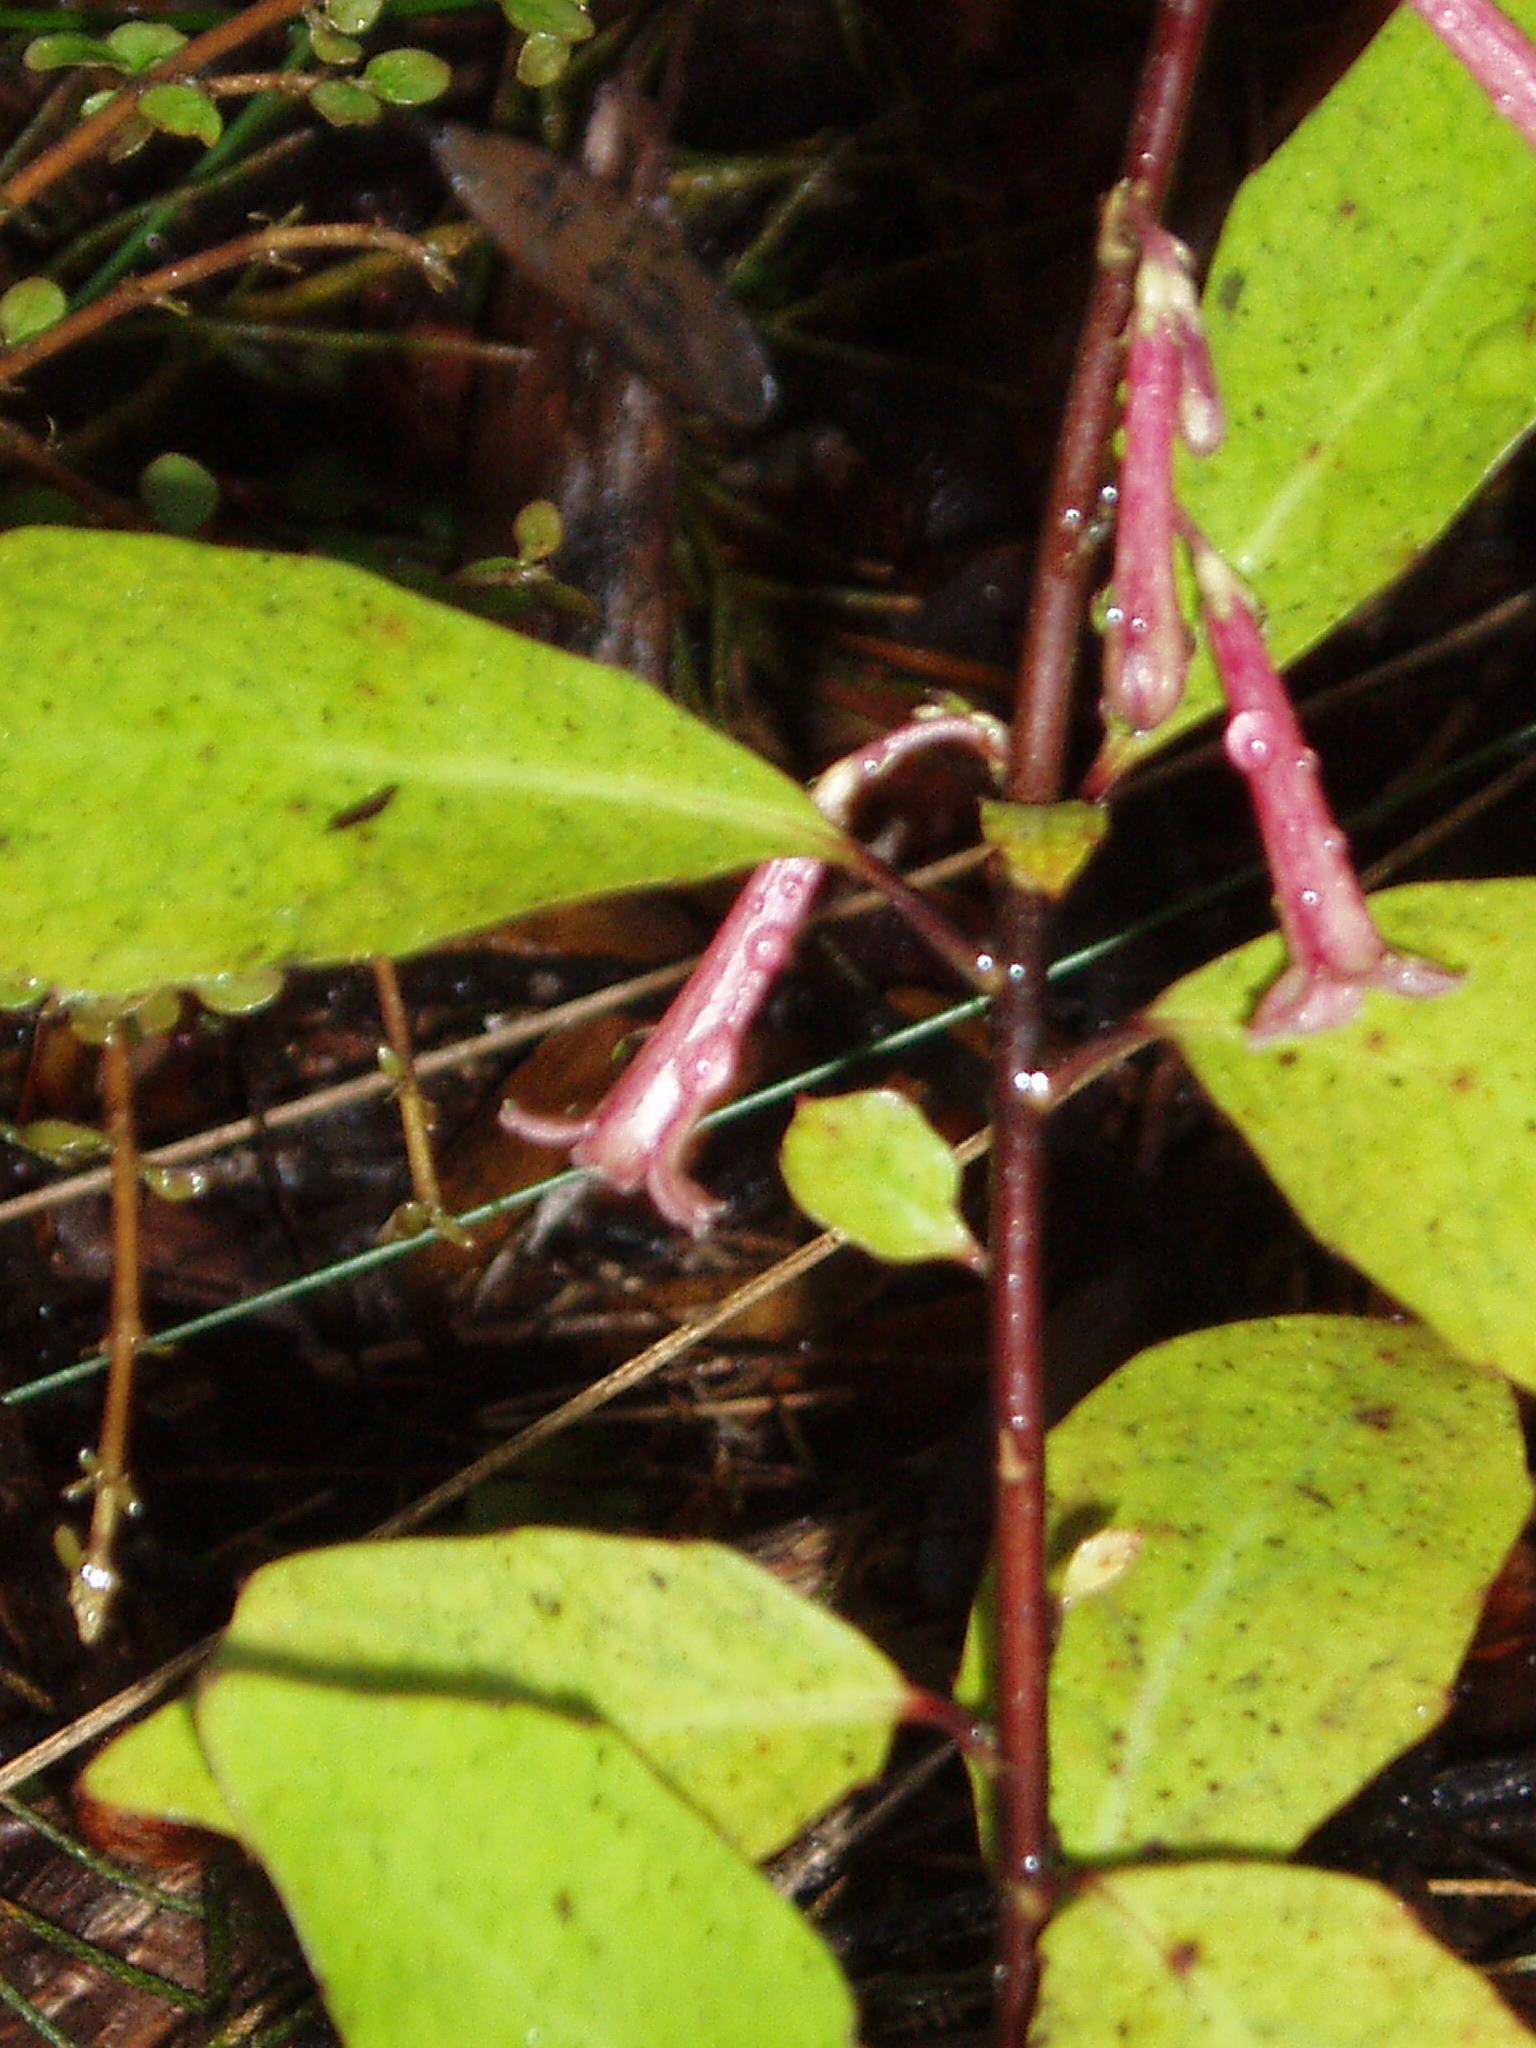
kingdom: Plantae
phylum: Tracheophyta
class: Magnoliopsida
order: Asterales
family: Alseuosmiaceae
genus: Alseuosmia
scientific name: Alseuosmia quercifolia
